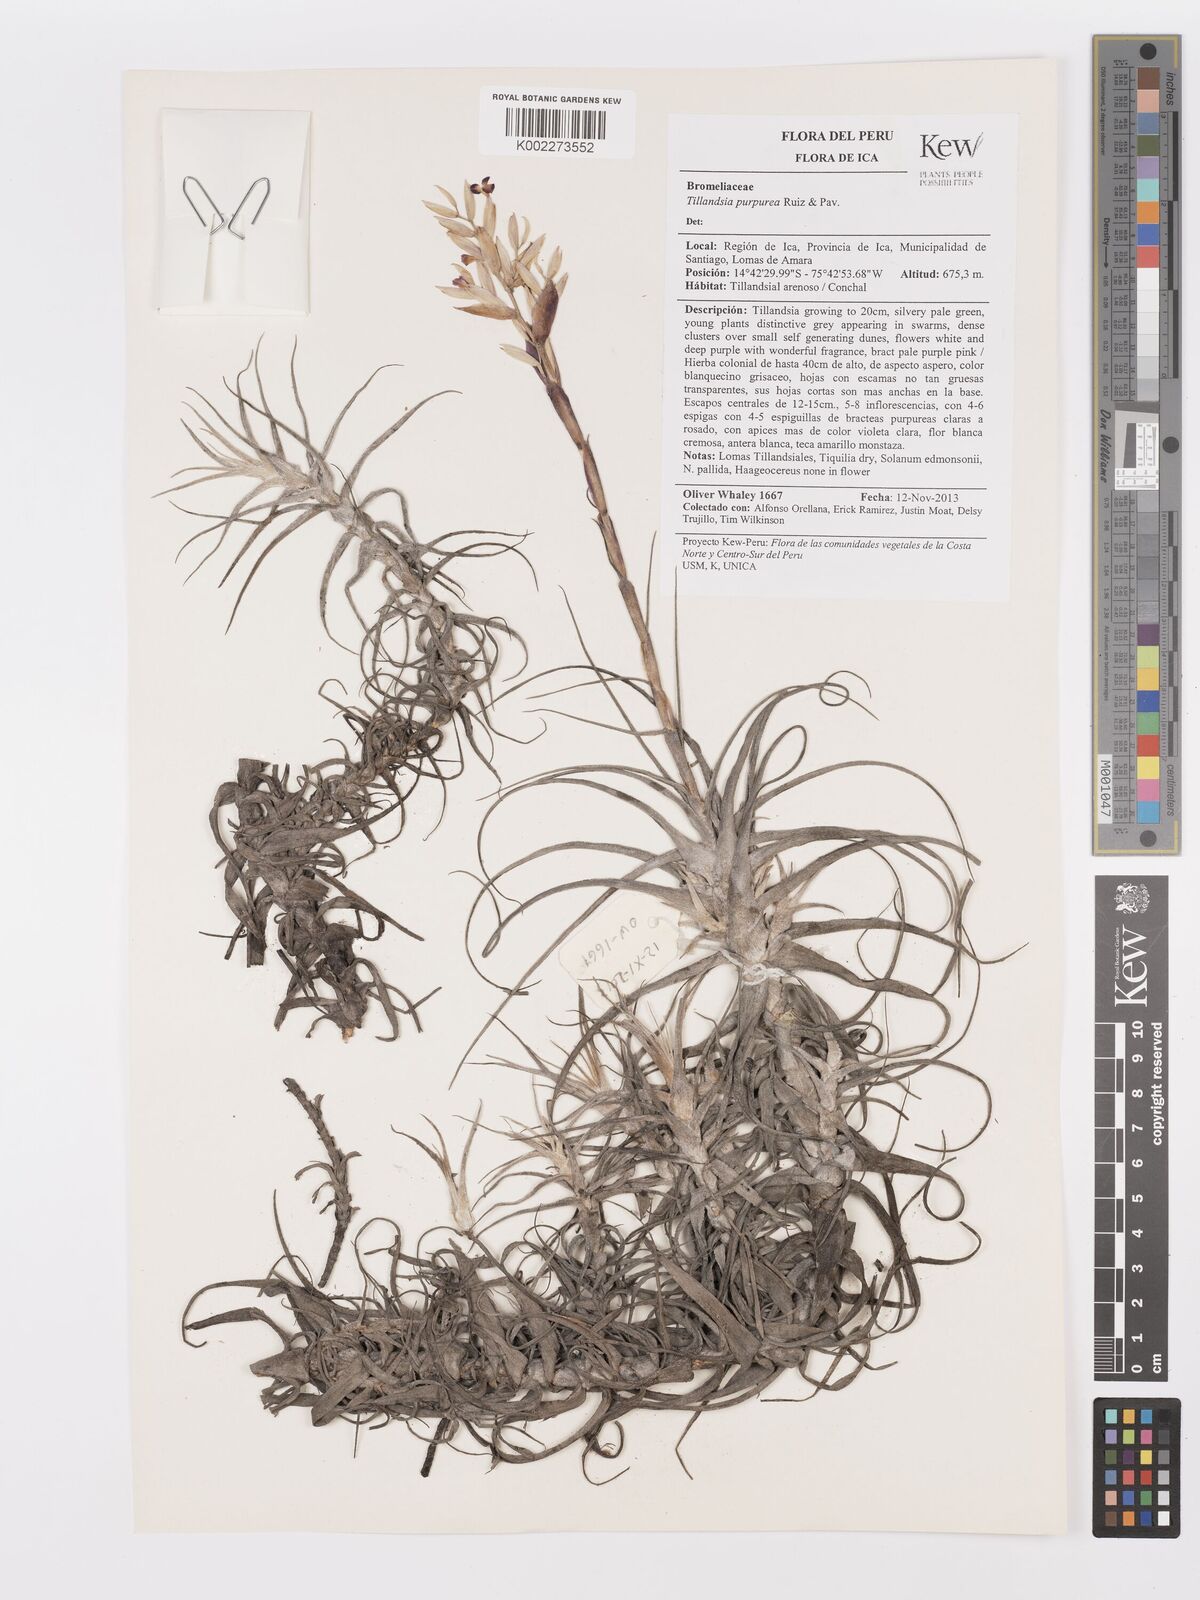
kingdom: Plantae
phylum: Tracheophyta
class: Liliopsida
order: Poales
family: Bromeliaceae
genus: Tillandsia
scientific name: Tillandsia purpurea
